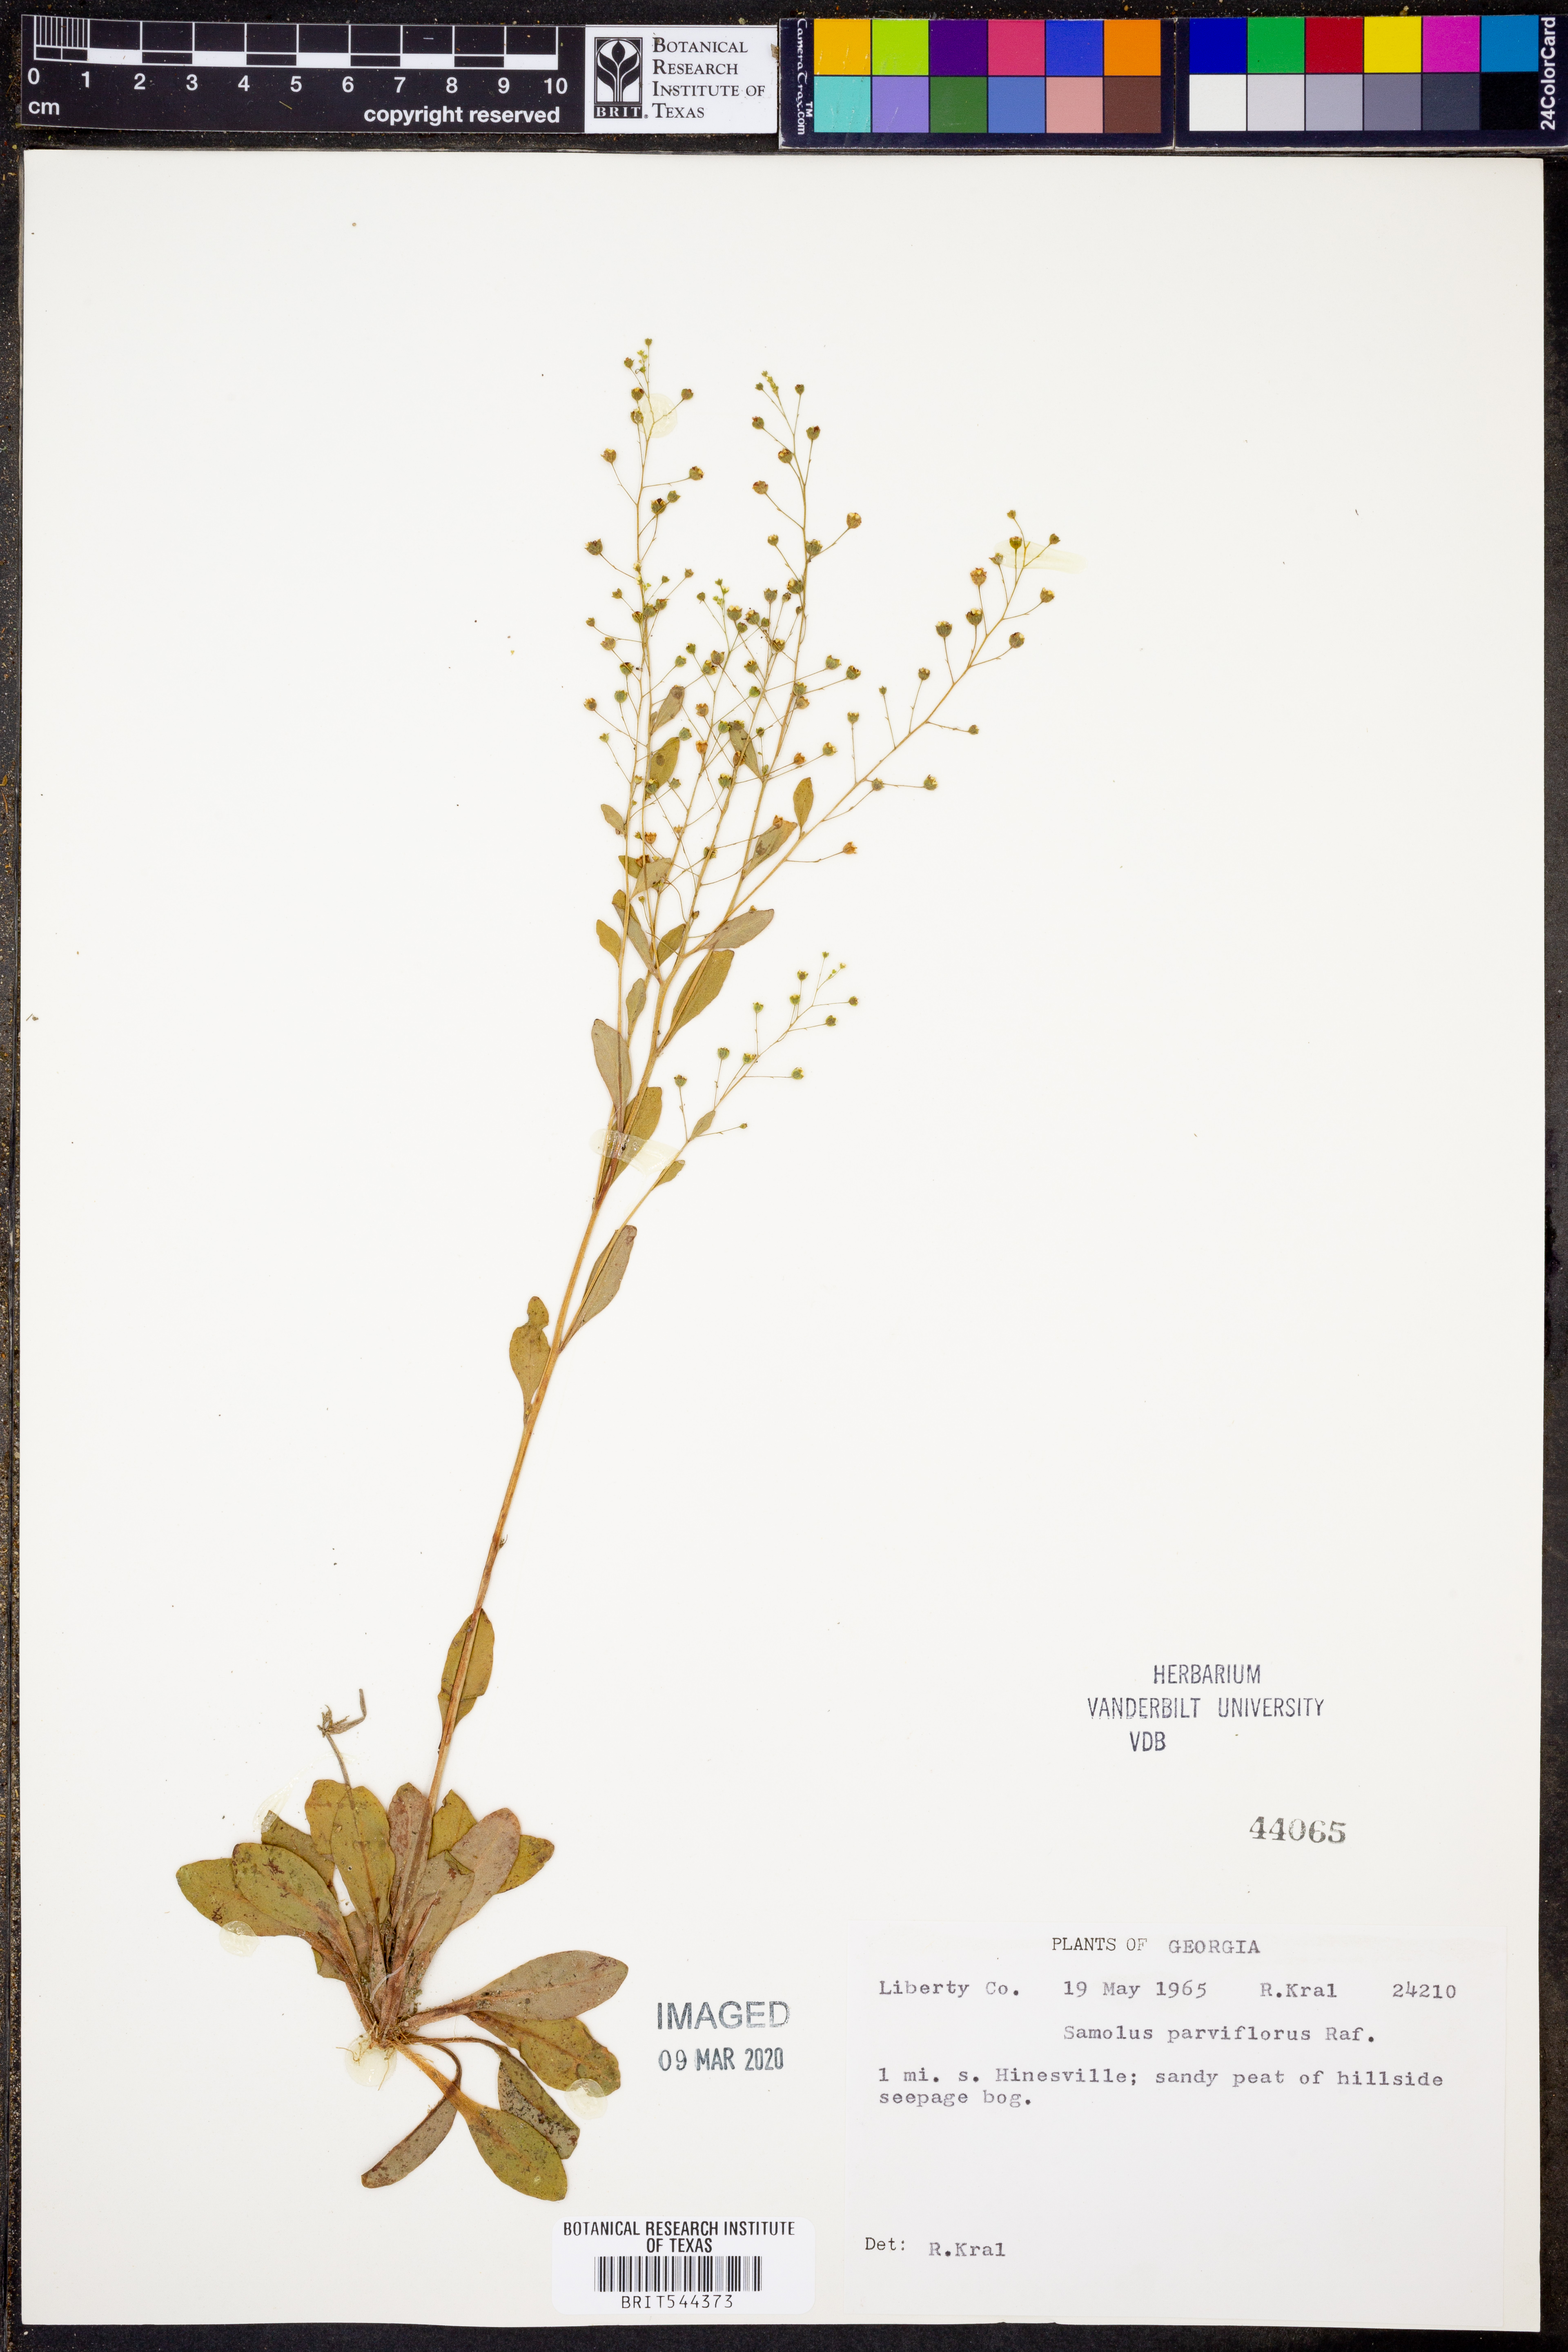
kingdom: Plantae
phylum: Tracheophyta
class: Magnoliopsida
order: Ericales
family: Primulaceae
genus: Samolus
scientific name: Samolus parviflorus
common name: False water pimpernel
